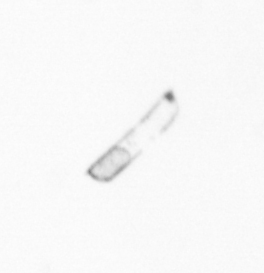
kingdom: Chromista
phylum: Ochrophyta
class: Bacillariophyceae
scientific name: Bacillariophyceae
